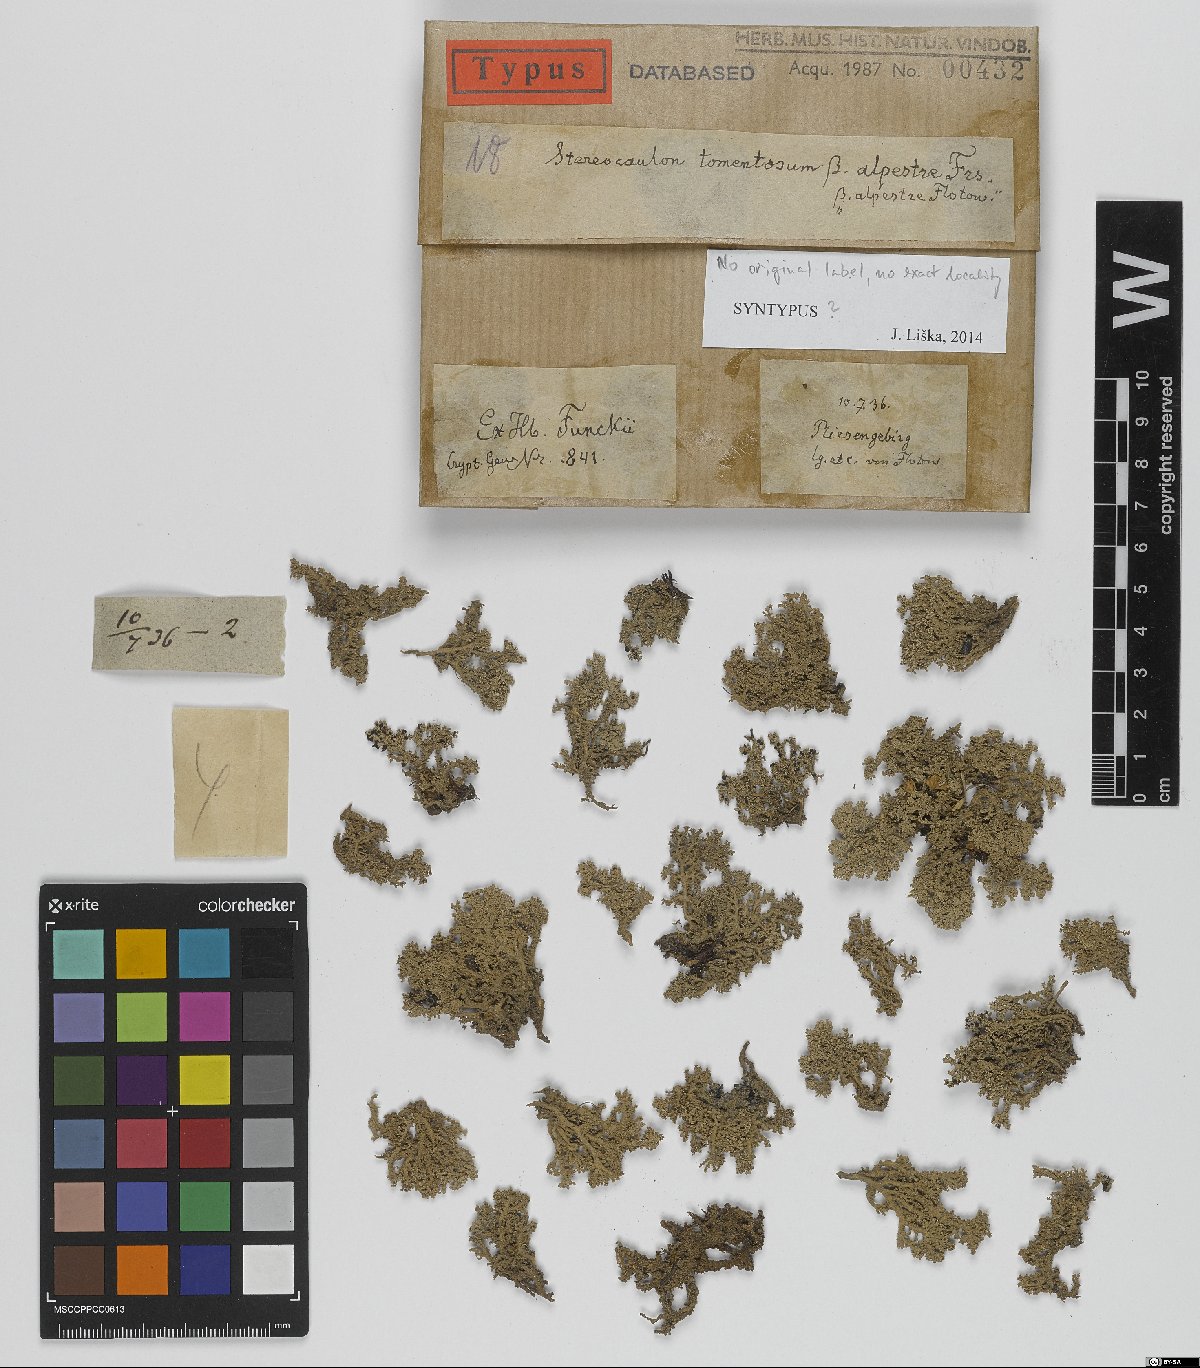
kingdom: Fungi
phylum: Ascomycota
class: Lecanoromycetes
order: Lecanorales
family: Stereocaulaceae
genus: Stereocaulon
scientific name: Stereocaulon tomentosum
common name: Woolly foam
